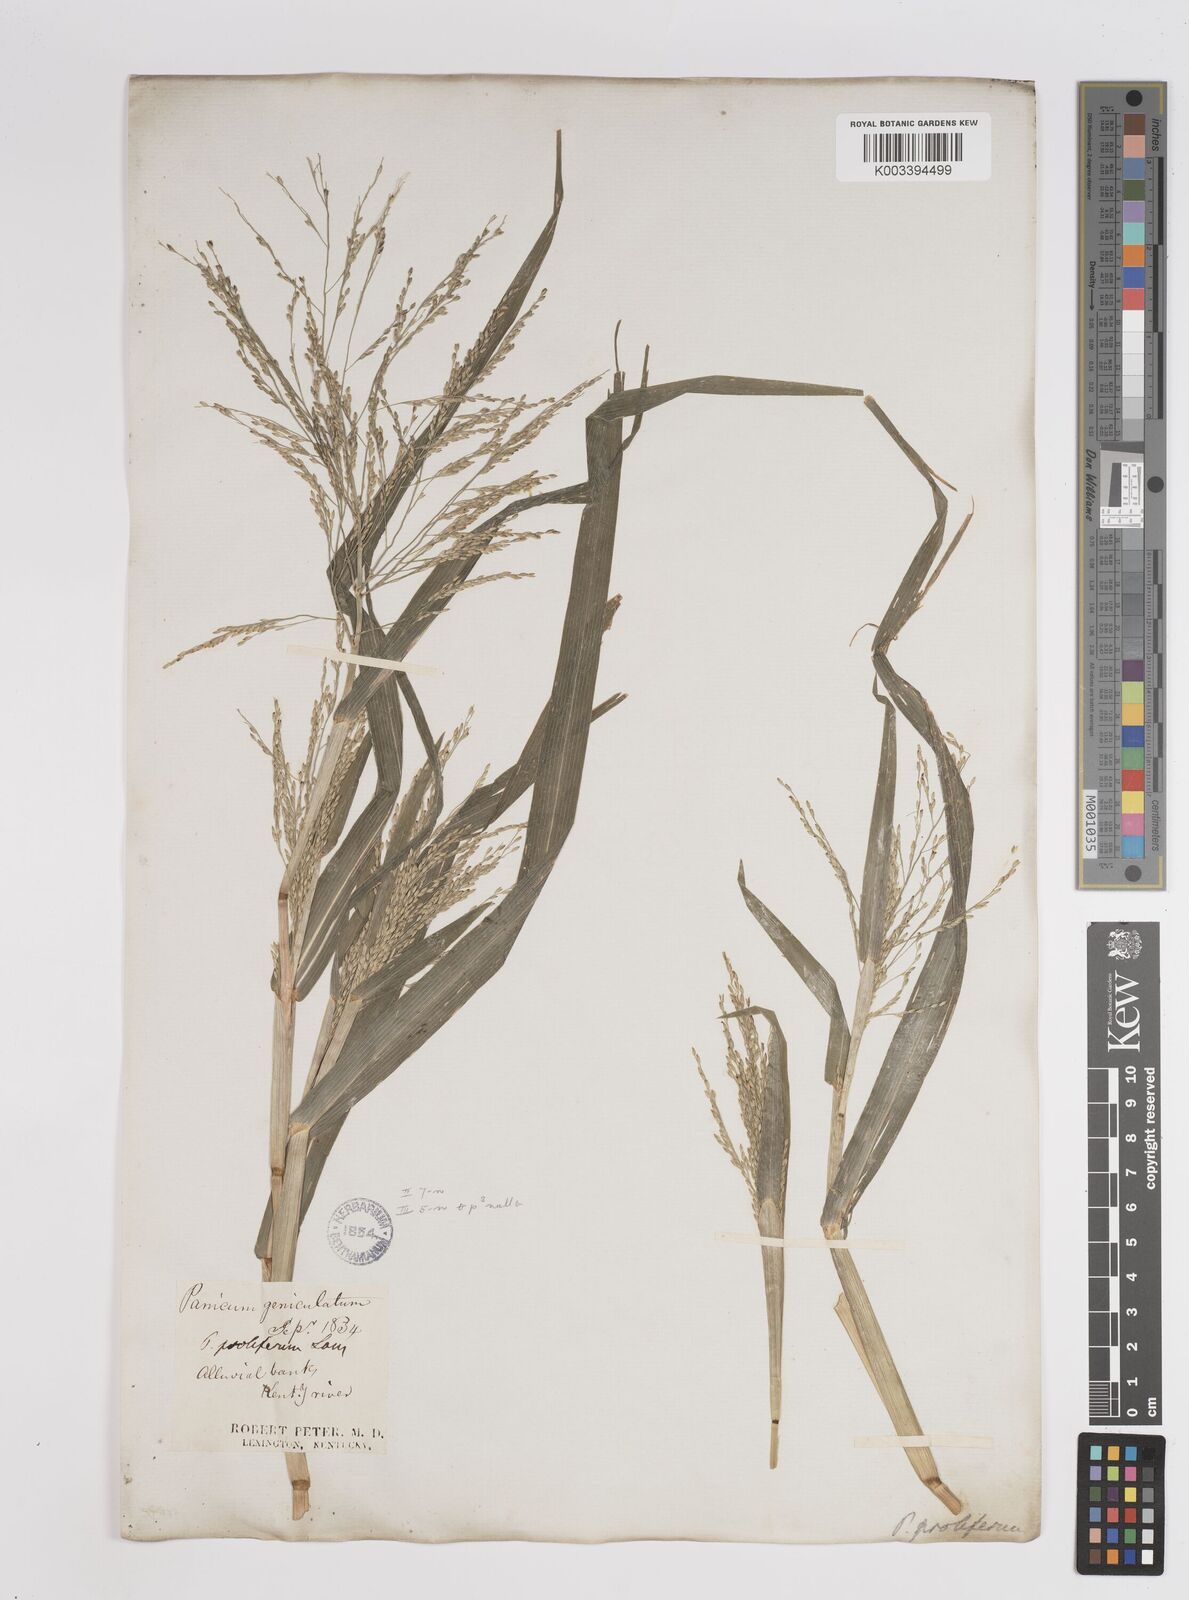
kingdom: Plantae
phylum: Tracheophyta
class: Liliopsida
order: Poales
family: Poaceae
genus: Panicum
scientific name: Panicum dichotomiflorum
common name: Autumn millet
